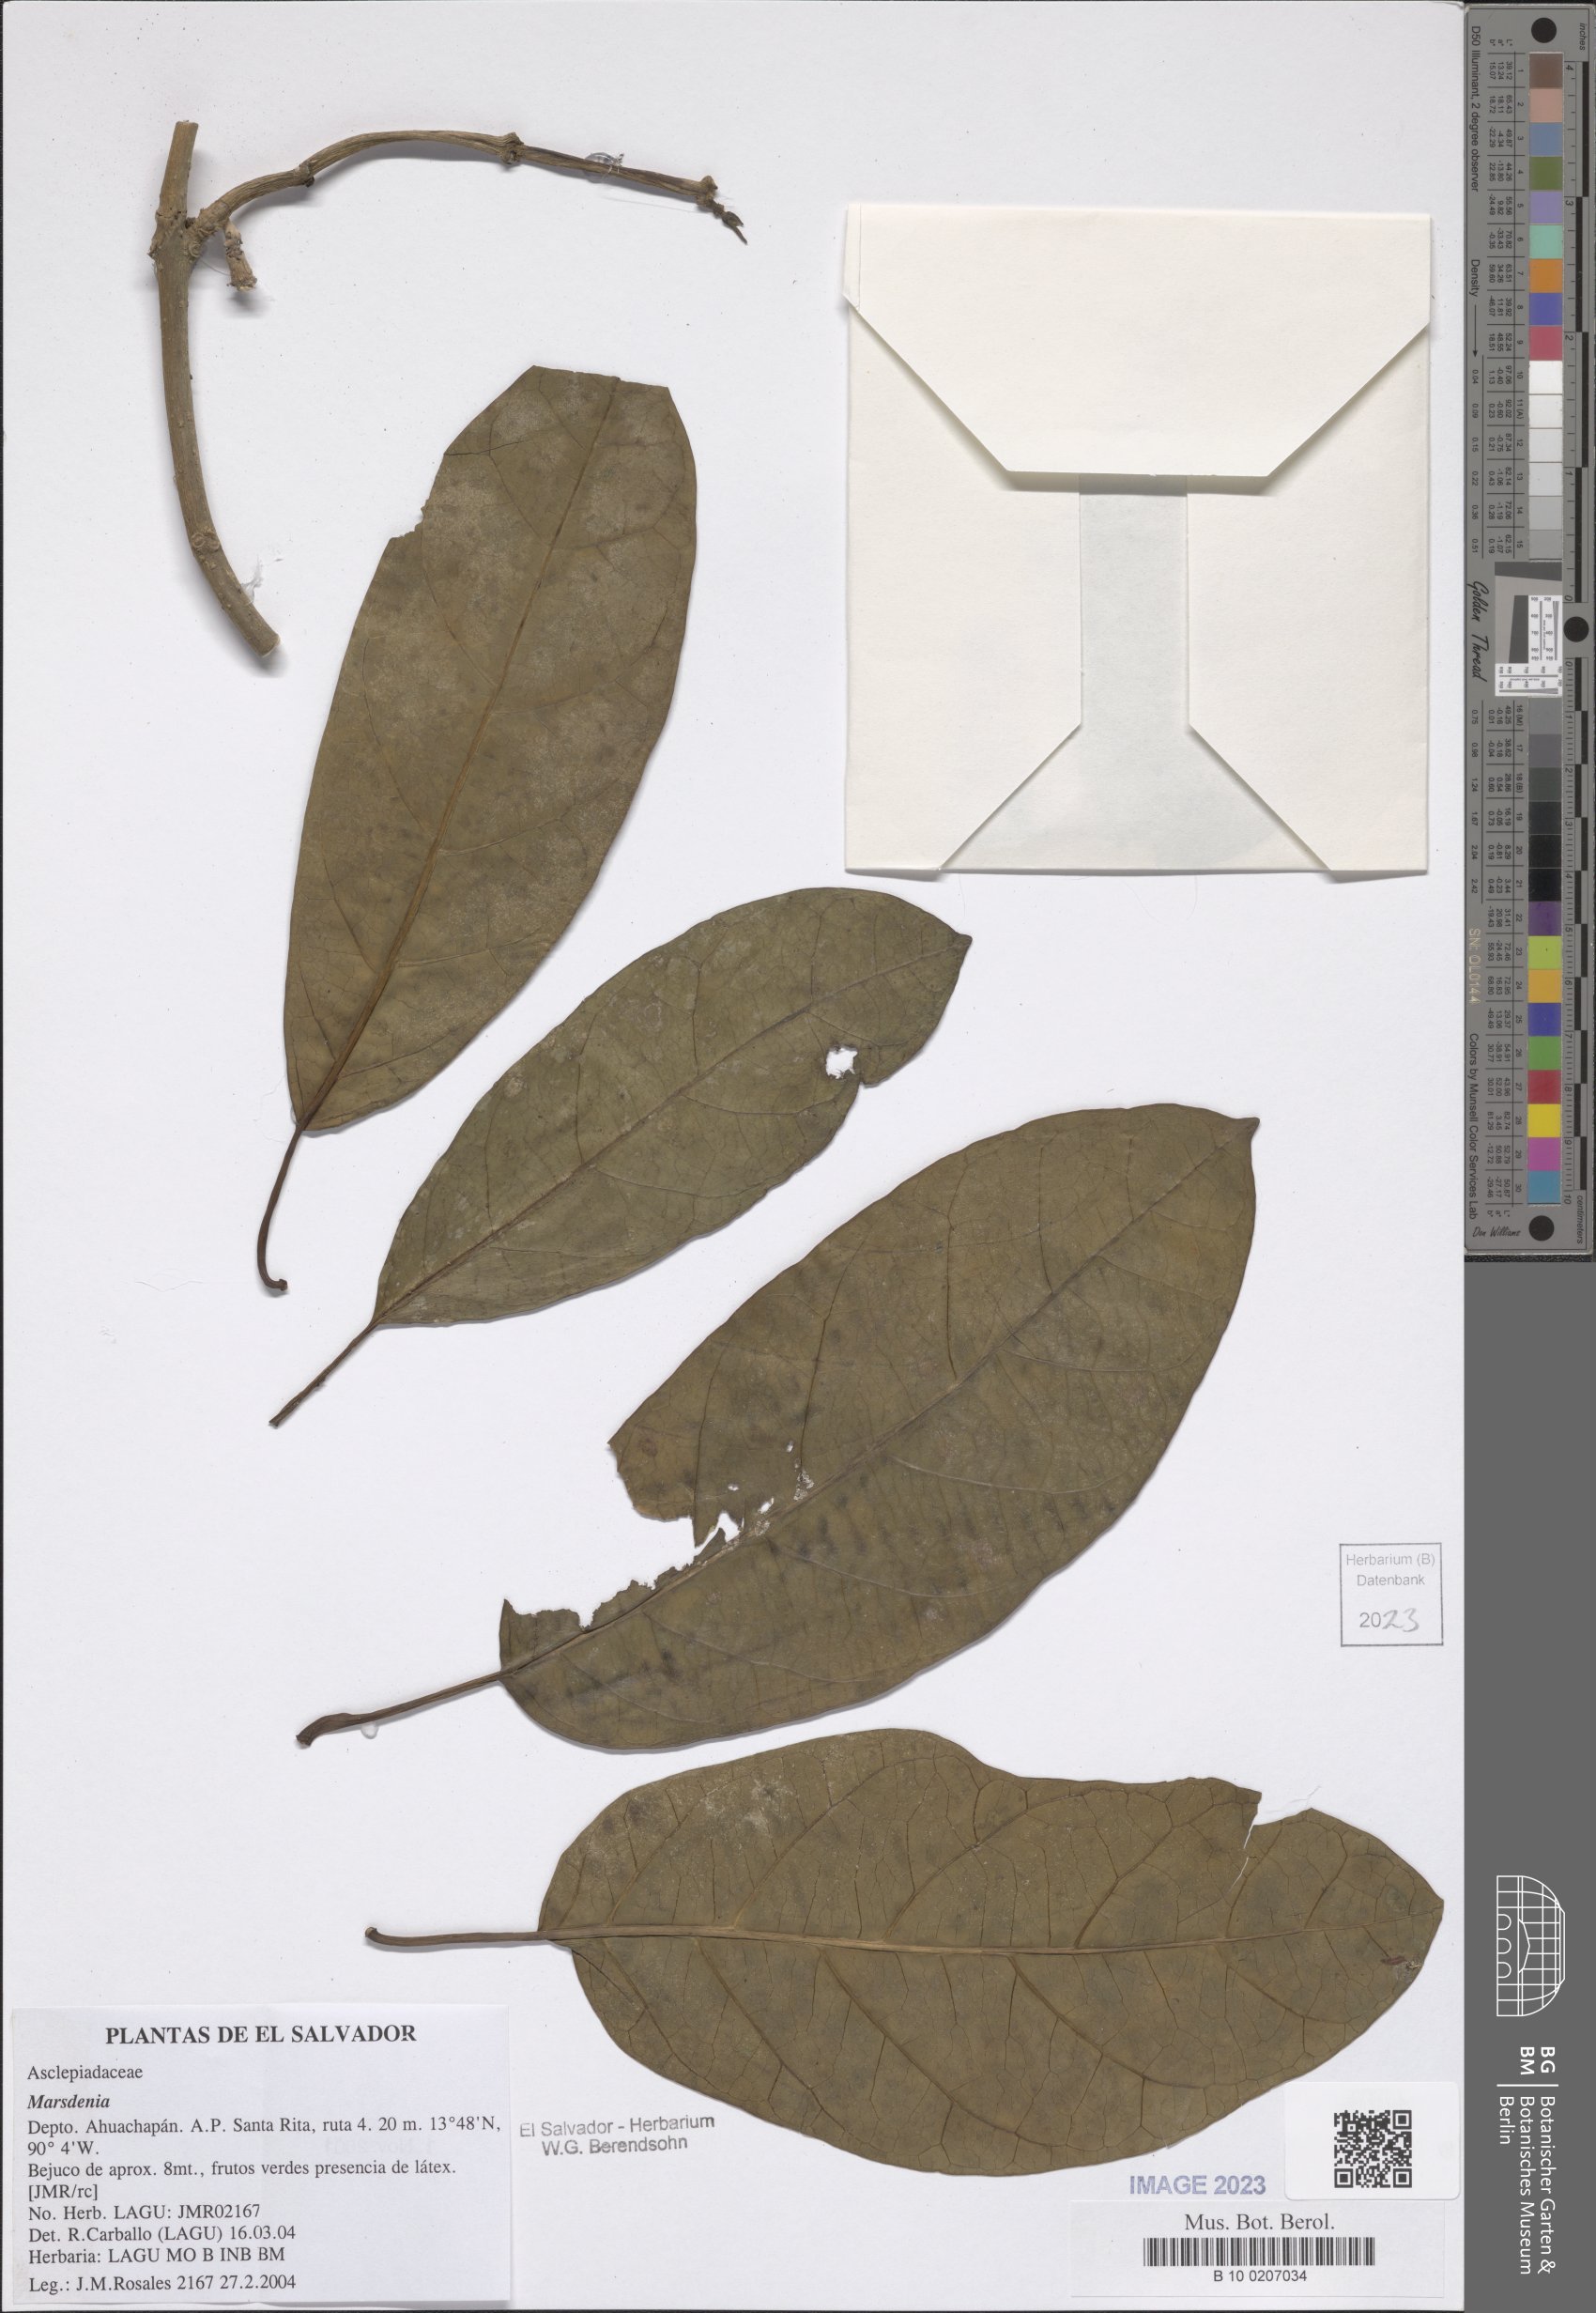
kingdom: Plantae
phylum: Tracheophyta
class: Magnoliopsida
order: Gentianales
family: Apocynaceae
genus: Marsdenia
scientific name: Marsdenia
